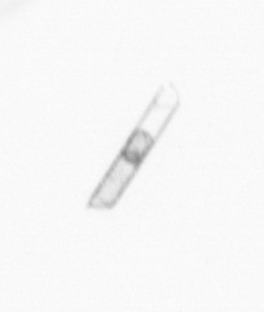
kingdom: Chromista
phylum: Ochrophyta
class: Bacillariophyceae
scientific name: Bacillariophyceae
